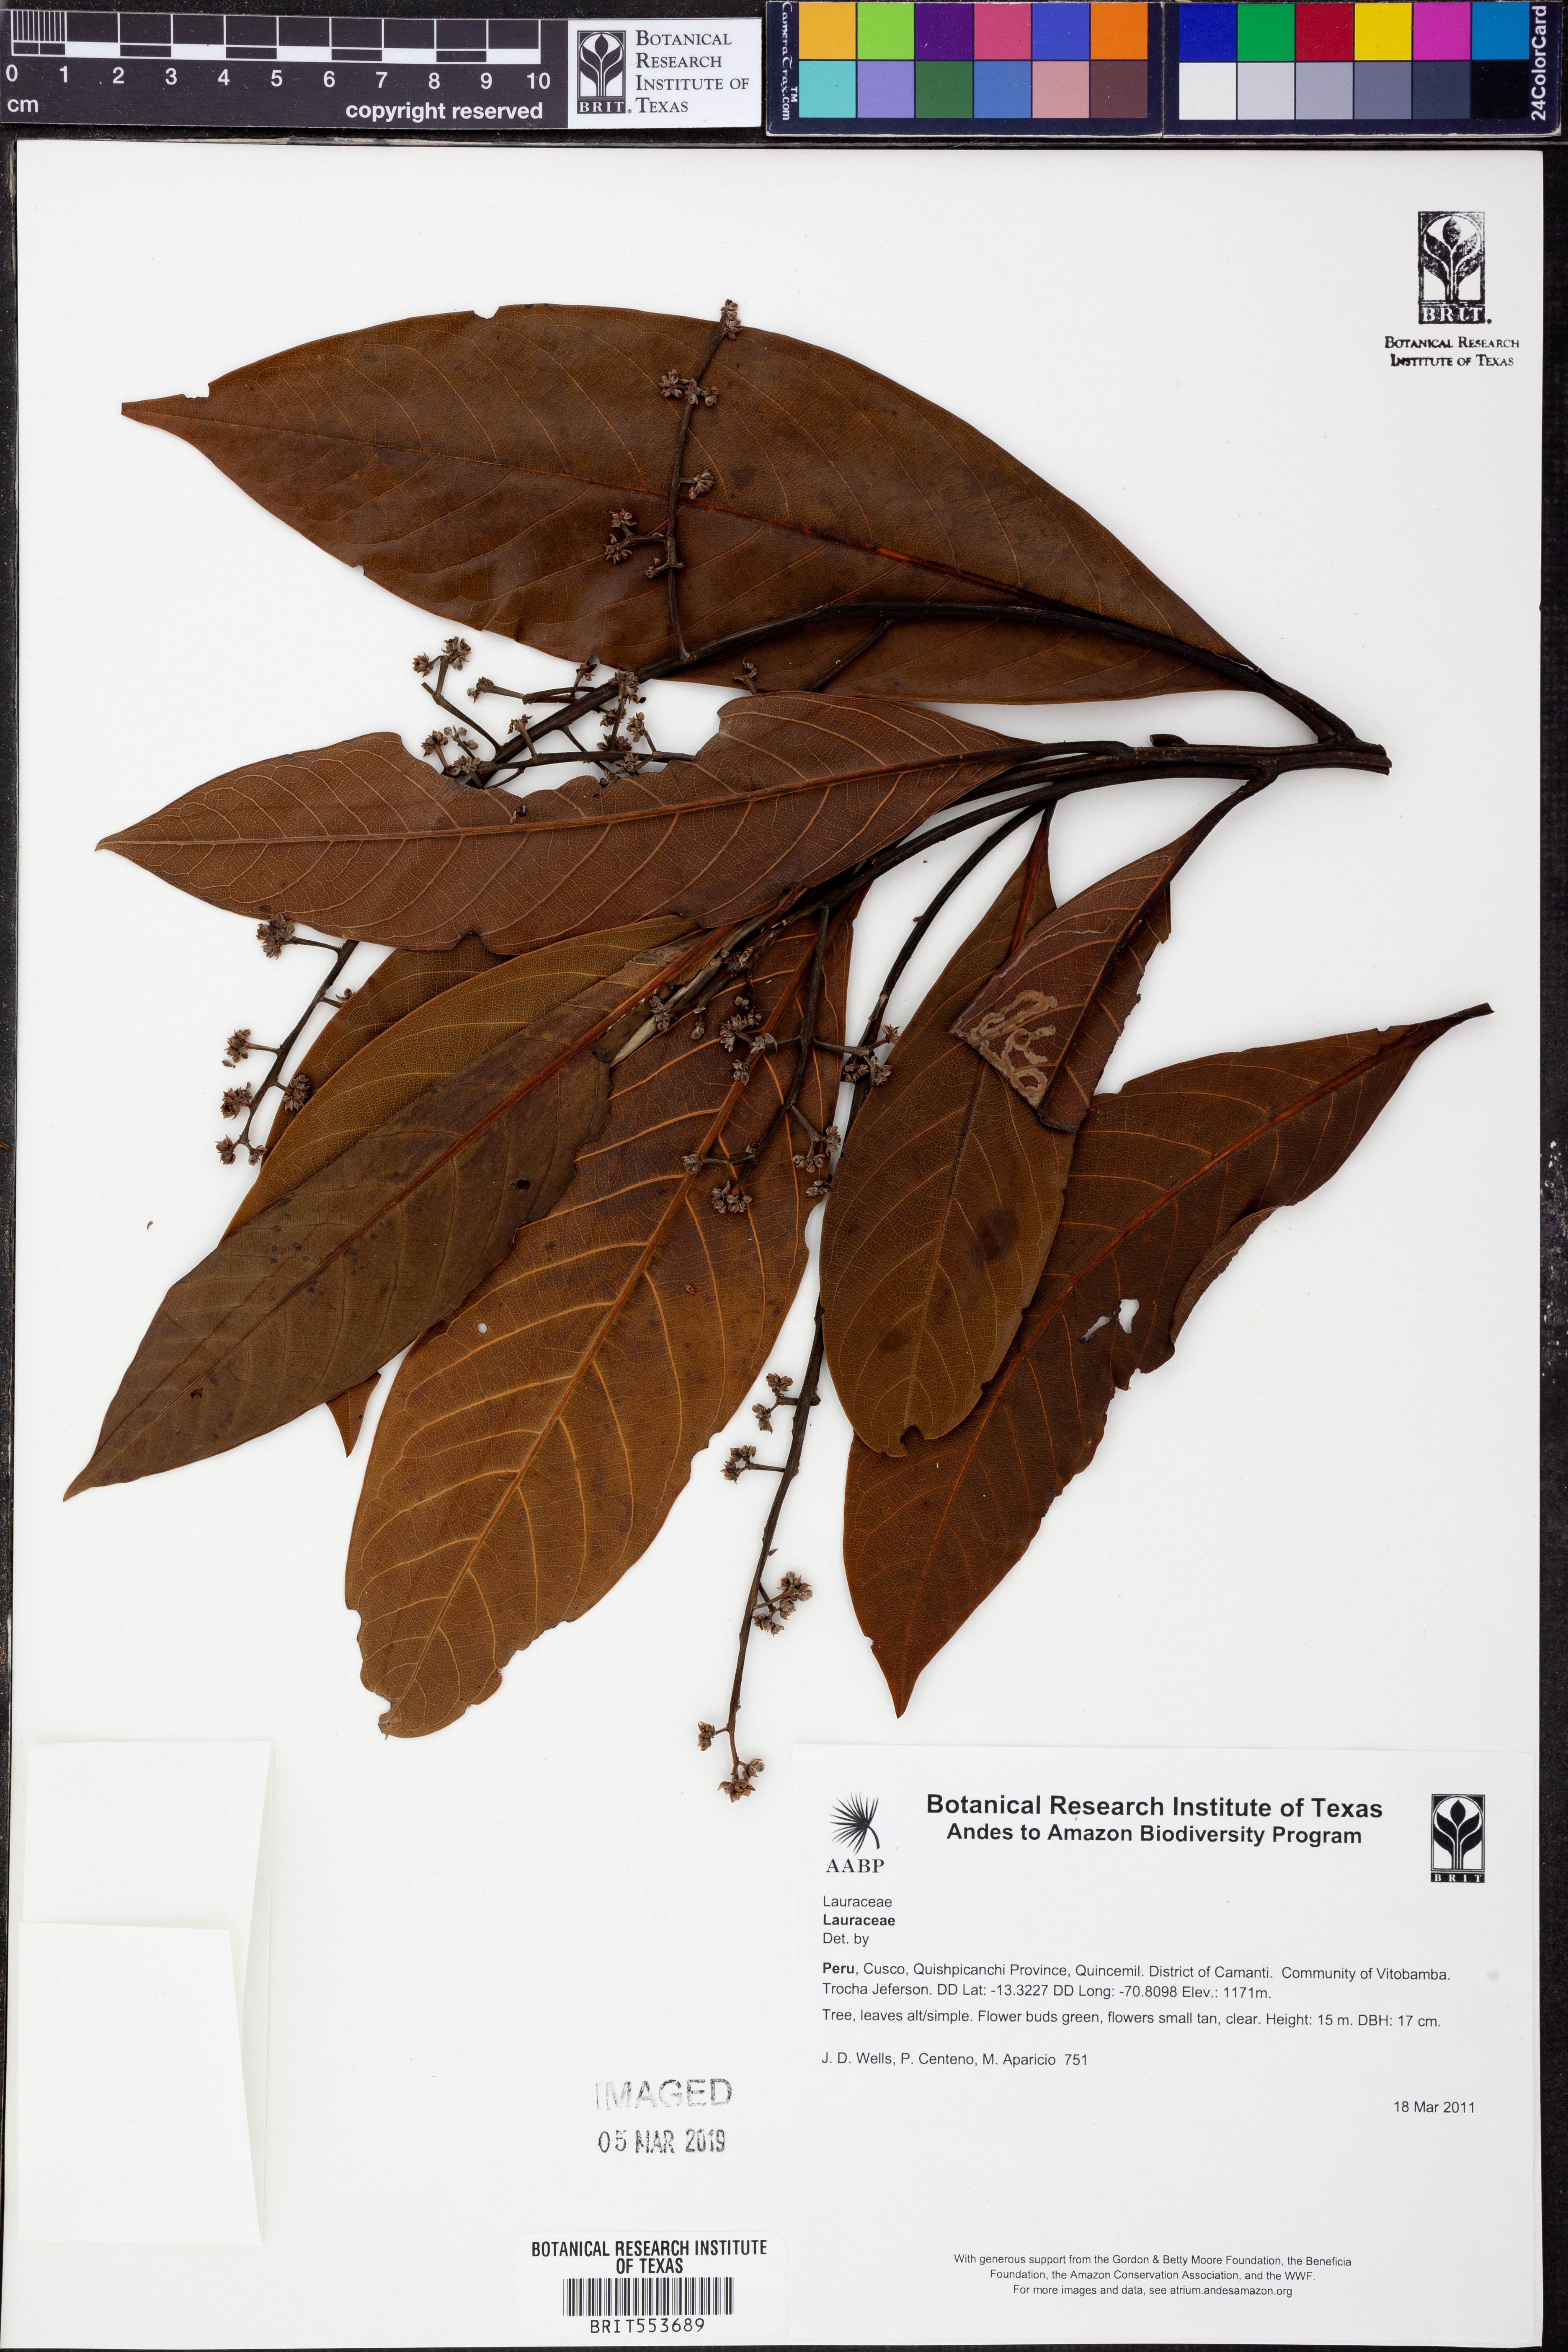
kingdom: Plantae
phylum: Tracheophyta
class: Magnoliopsida
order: Laurales
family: Lauraceae
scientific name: Lauraceae
